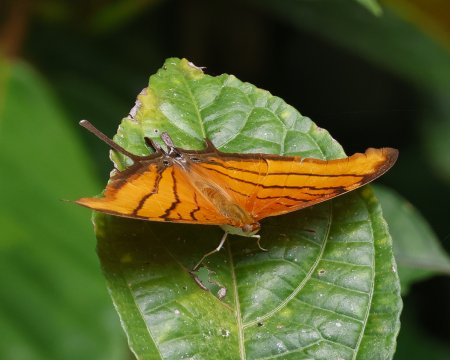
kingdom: Animalia
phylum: Arthropoda
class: Insecta
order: Lepidoptera
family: Nymphalidae
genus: Marpesia
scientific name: Marpesia petreus
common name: Ruddy Daggerwing
